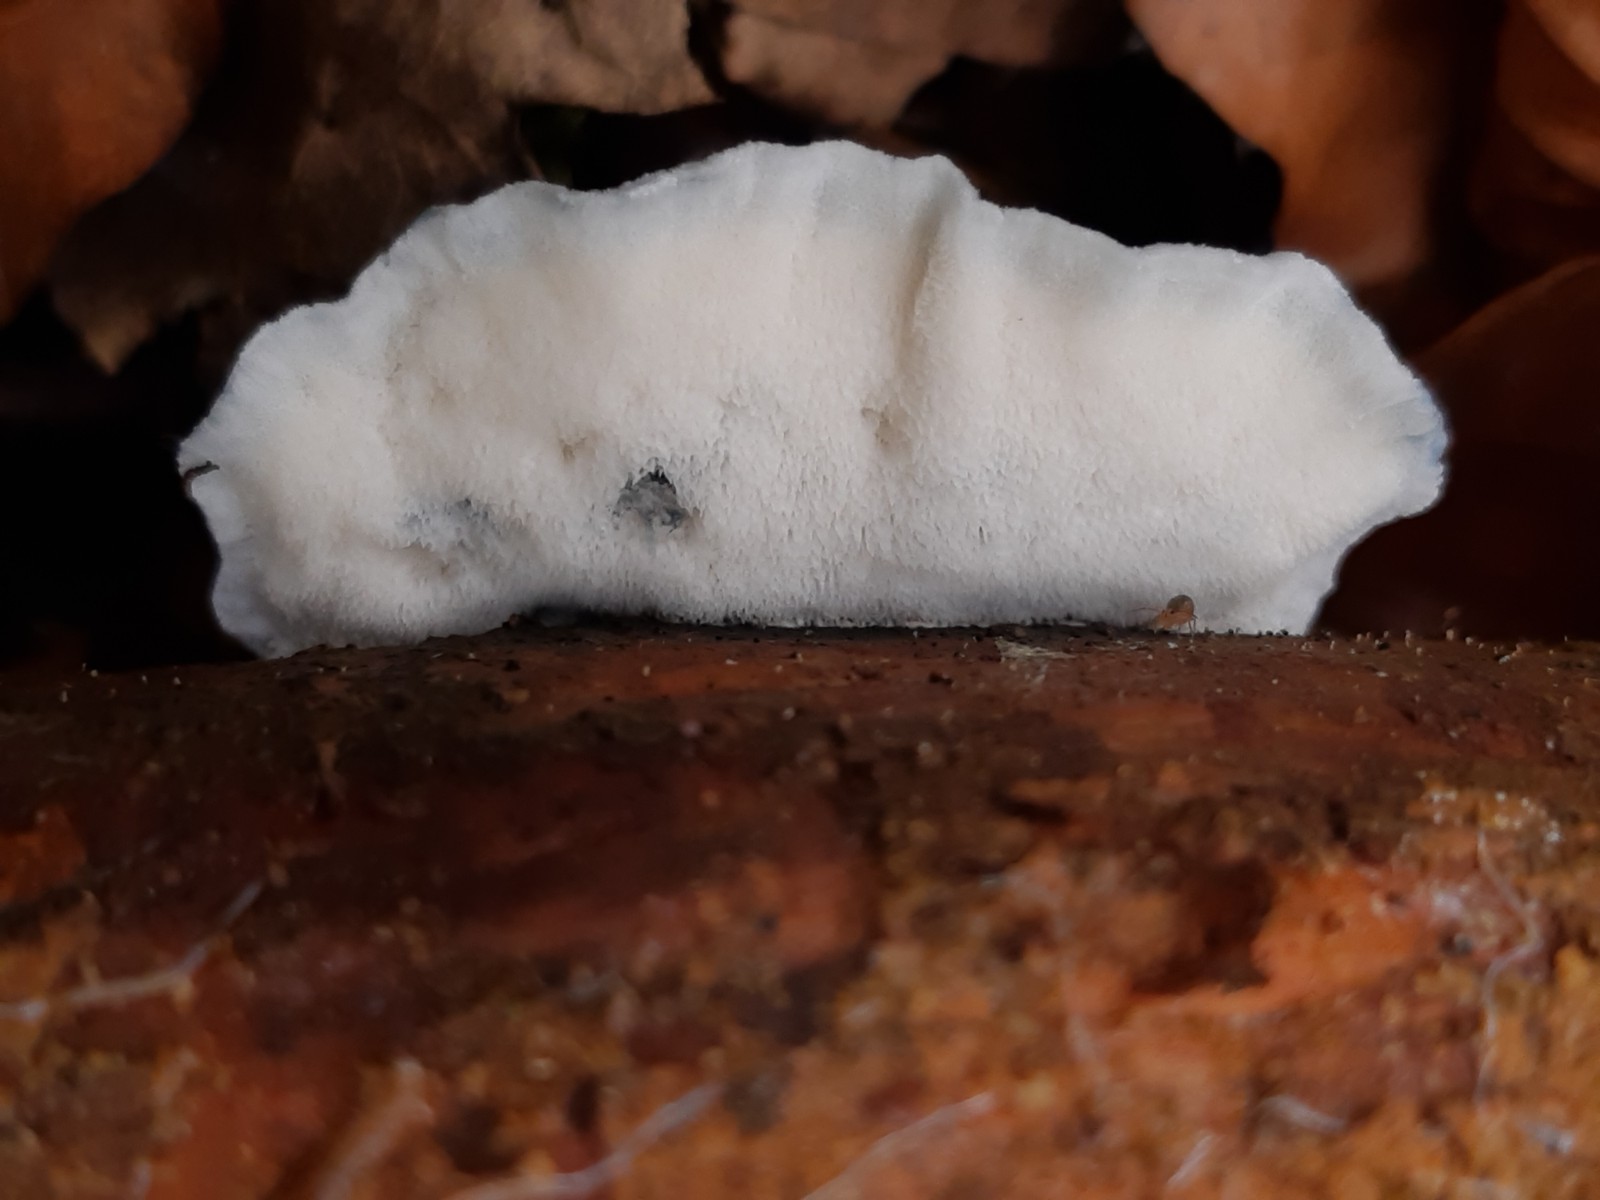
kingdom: Fungi
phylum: Basidiomycota
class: Agaricomycetes
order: Polyporales
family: Polyporaceae
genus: Cyanosporus
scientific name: Cyanosporus caesius
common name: blålig kødporesvamp
